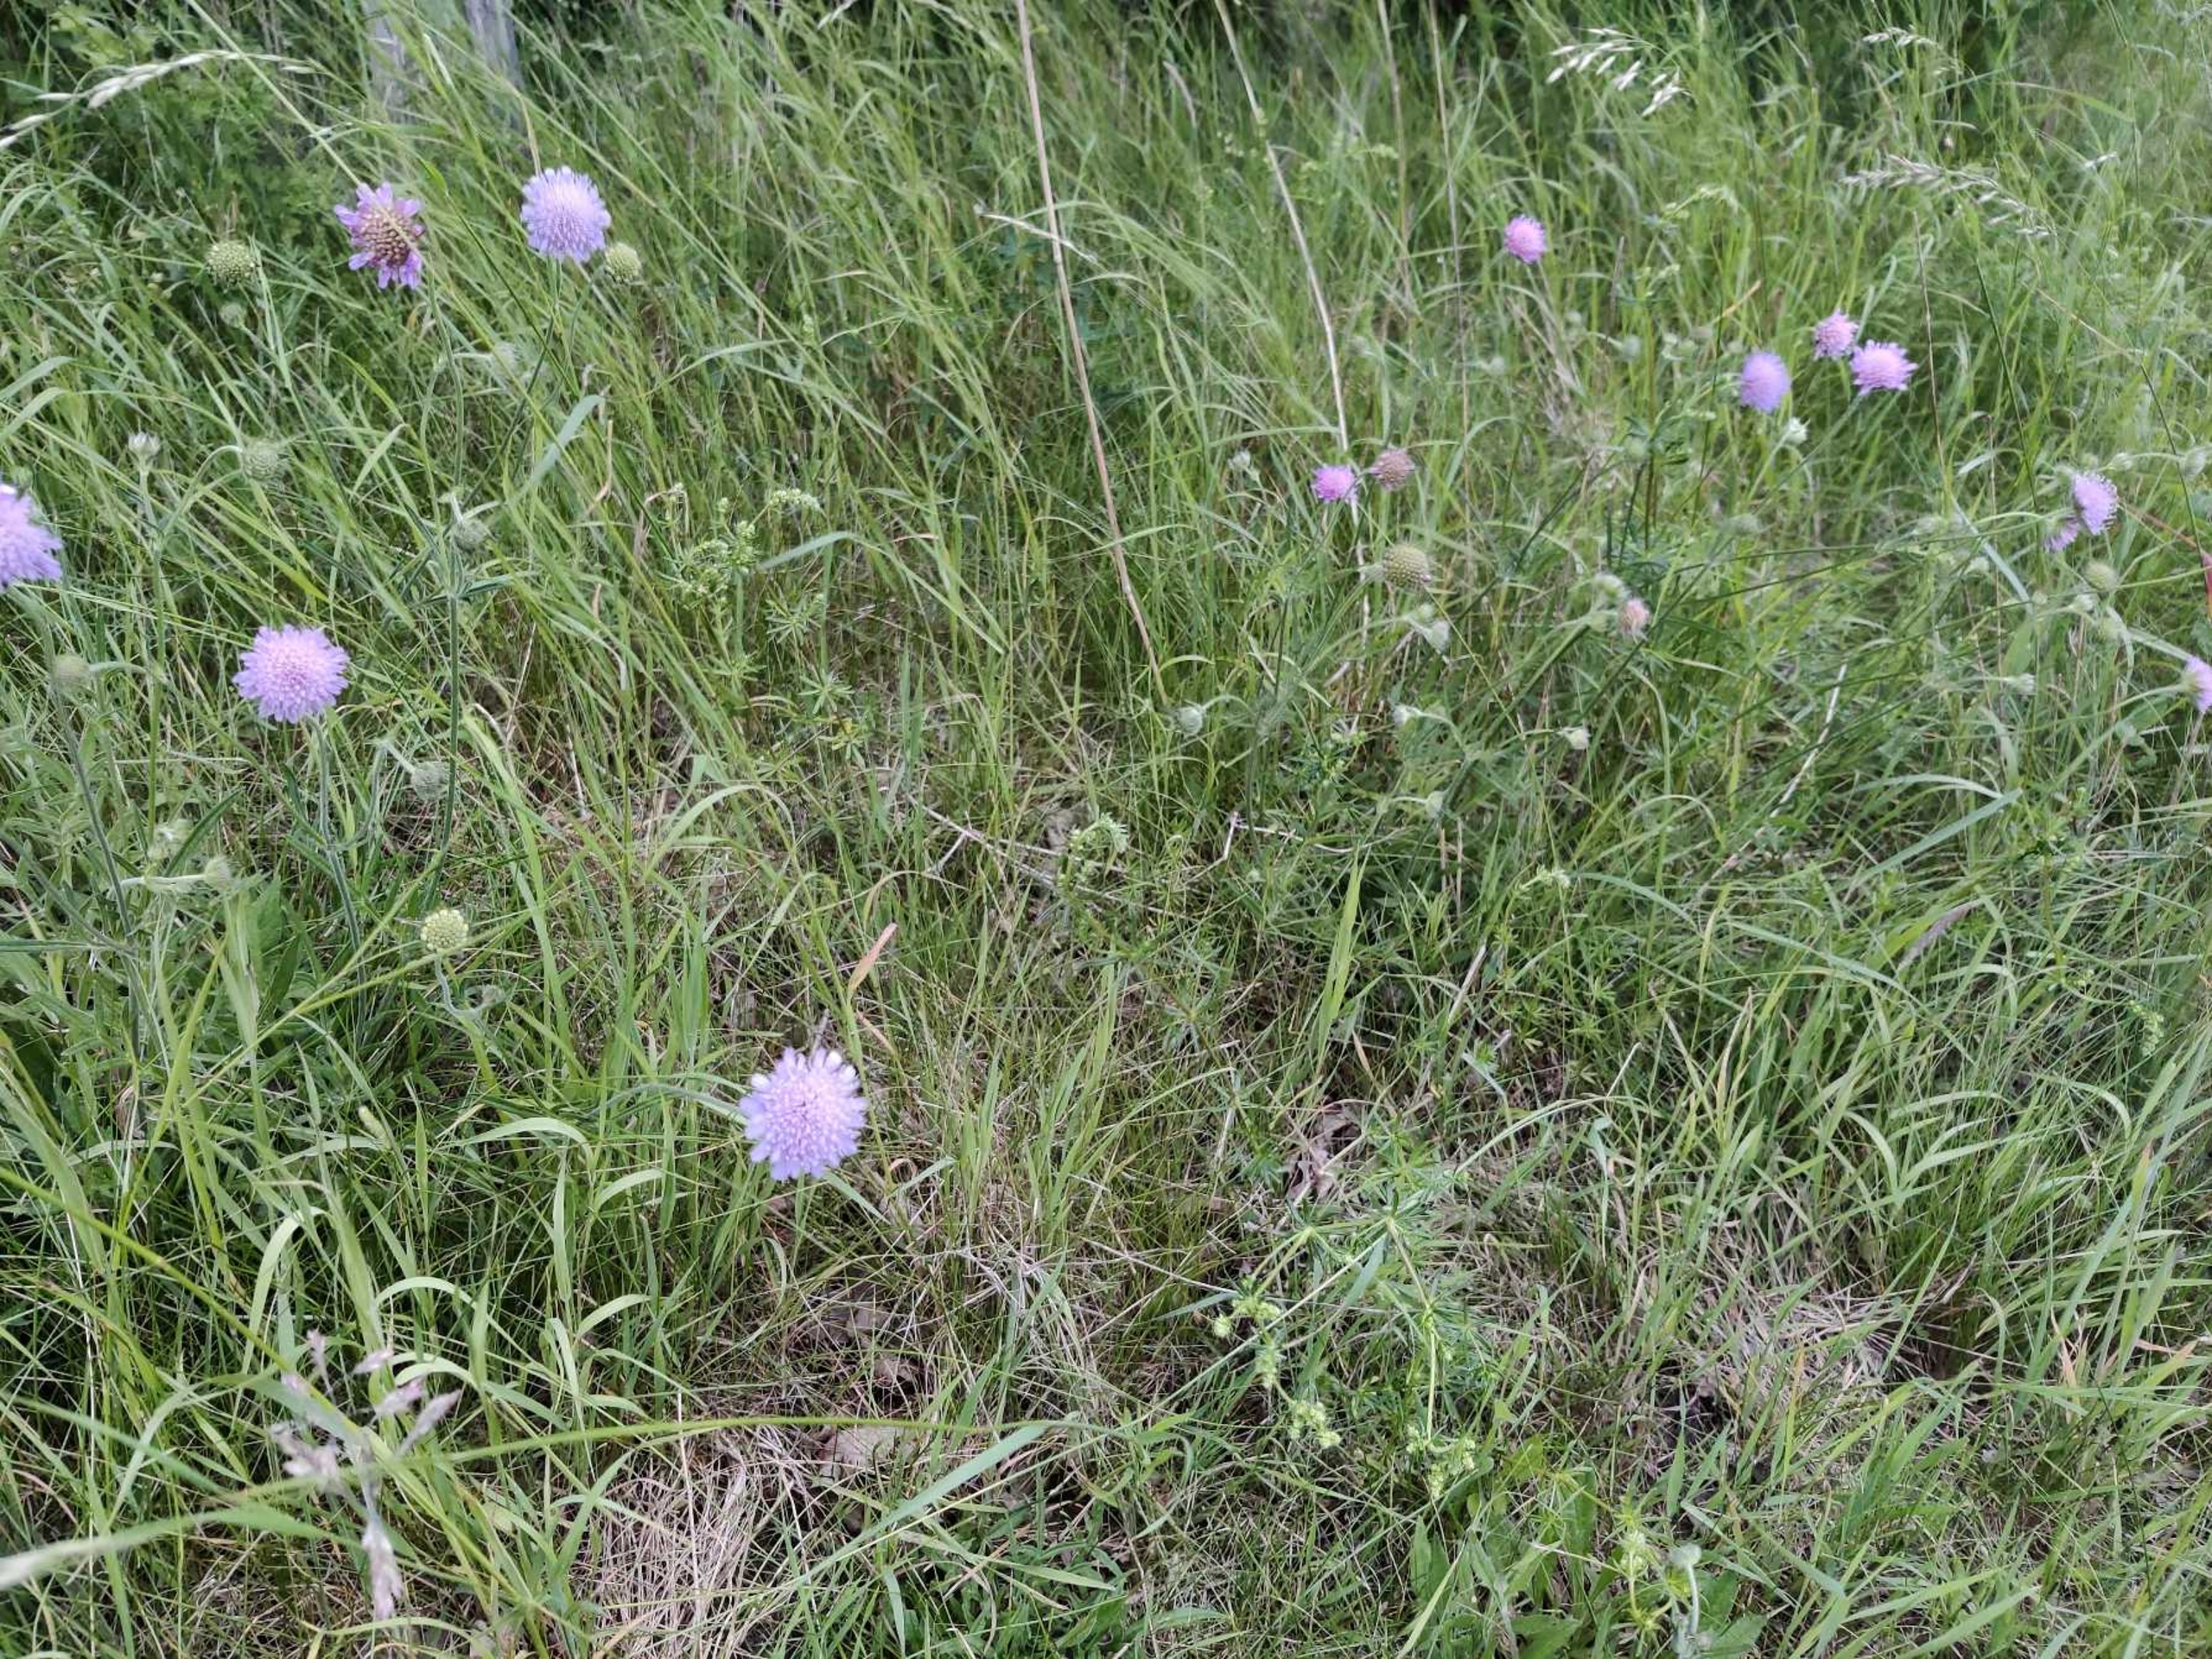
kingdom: Plantae
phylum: Tracheophyta
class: Magnoliopsida
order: Dipsacales
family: Caprifoliaceae
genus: Knautia
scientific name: Knautia arvensis
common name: Blåhat
